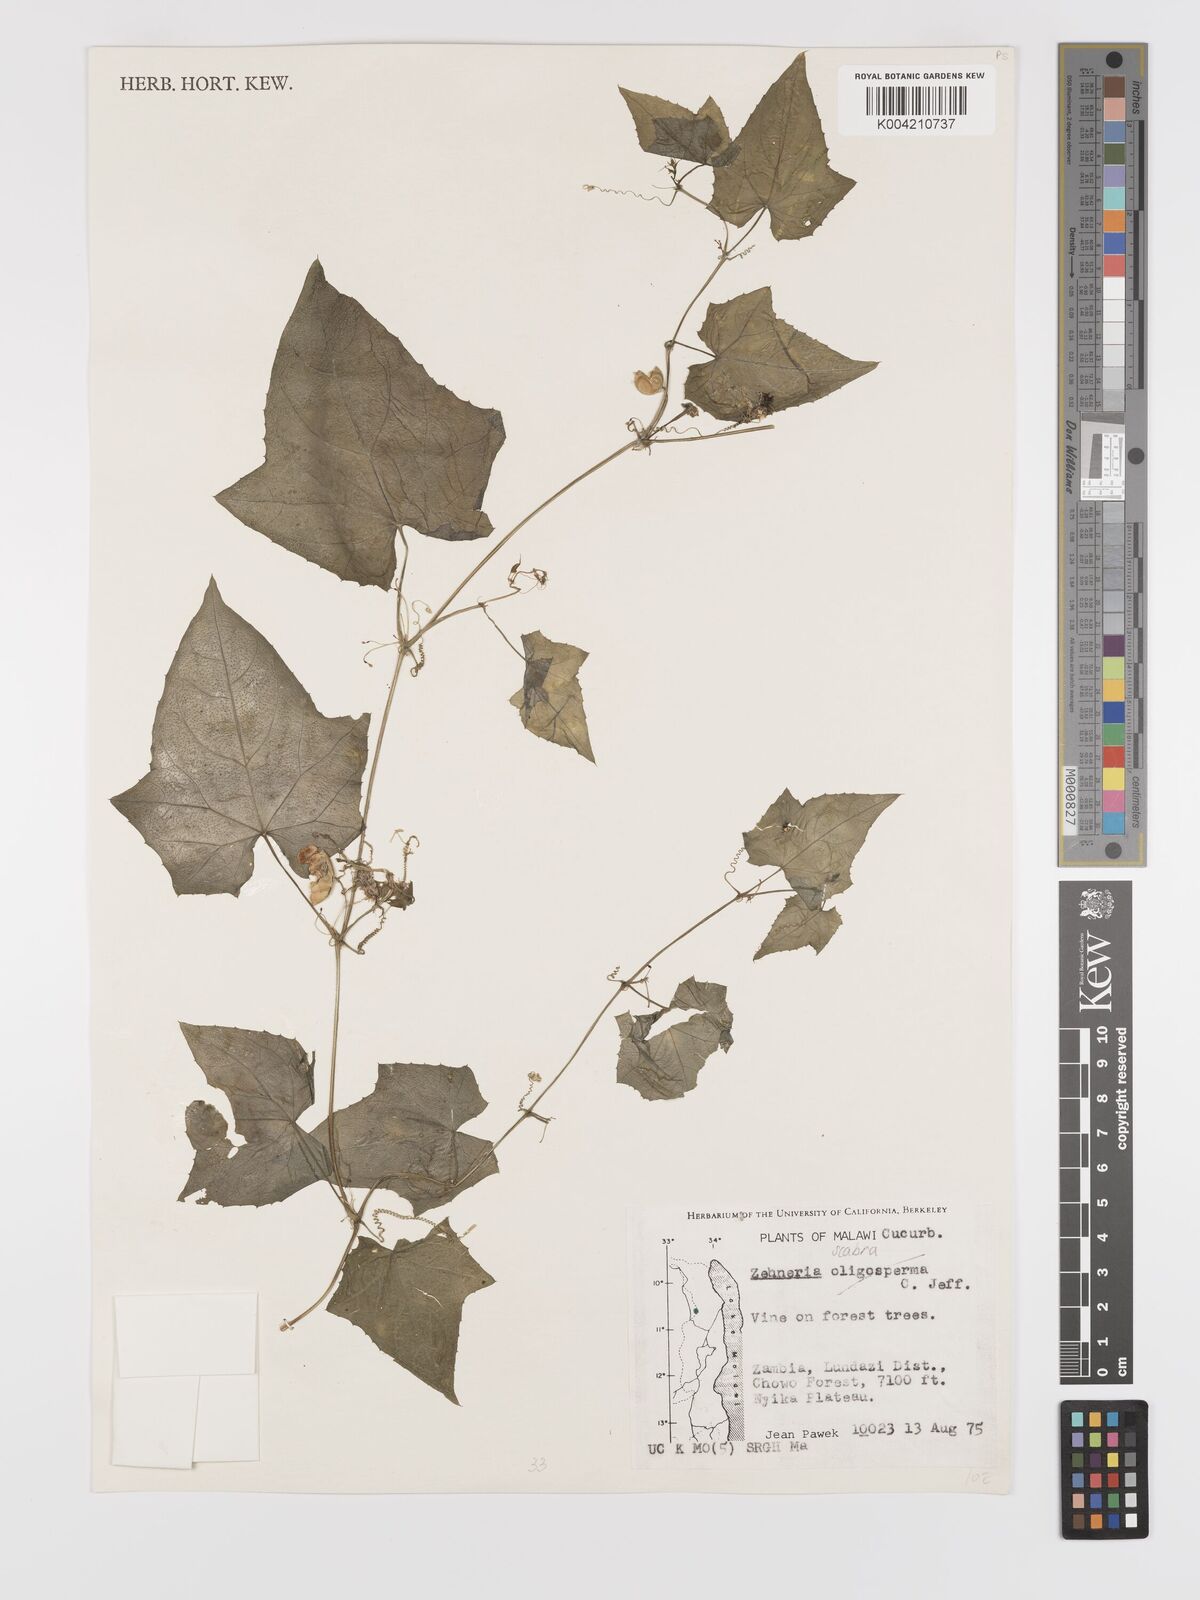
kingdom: Plantae
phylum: Tracheophyta
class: Magnoliopsida
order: Cucurbitales
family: Cucurbitaceae
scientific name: Cucurbitaceae
